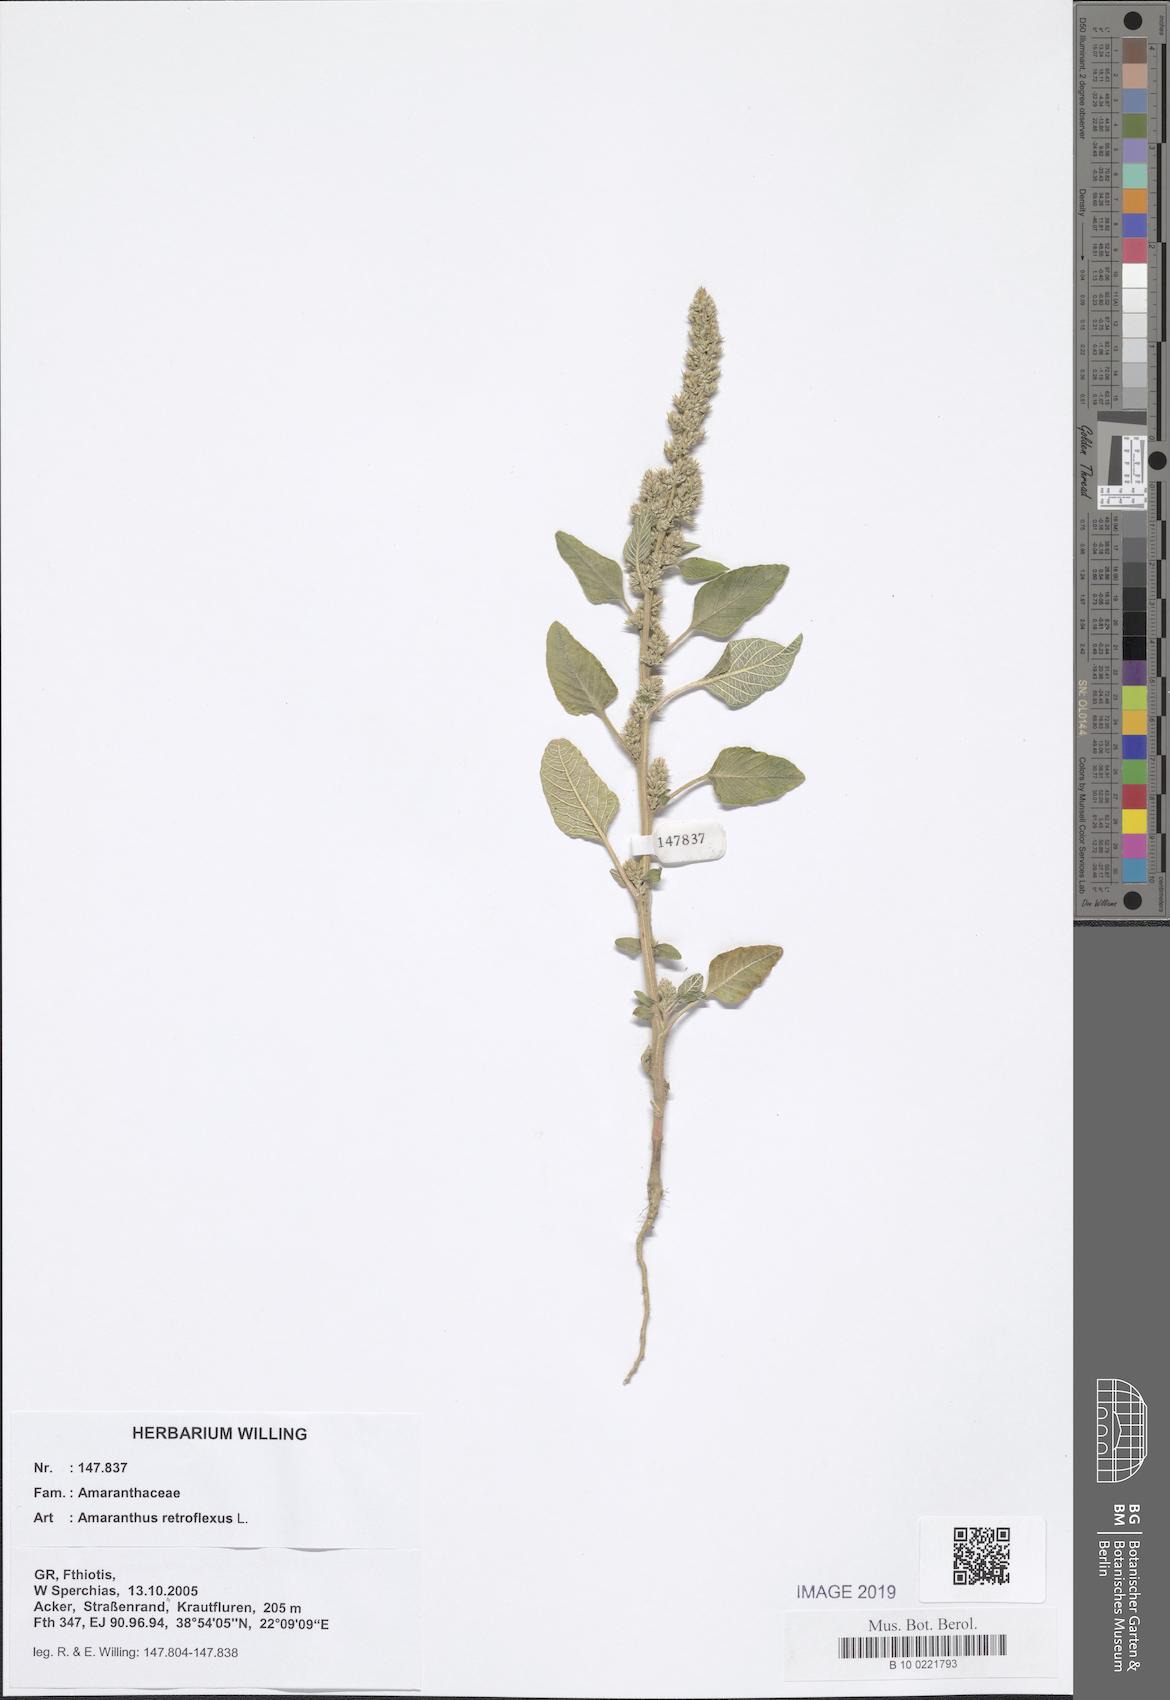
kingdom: Plantae
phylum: Tracheophyta
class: Magnoliopsida
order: Caryophyllales
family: Amaranthaceae
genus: Amaranthus
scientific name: Amaranthus retroflexus
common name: Redroot amaranth
